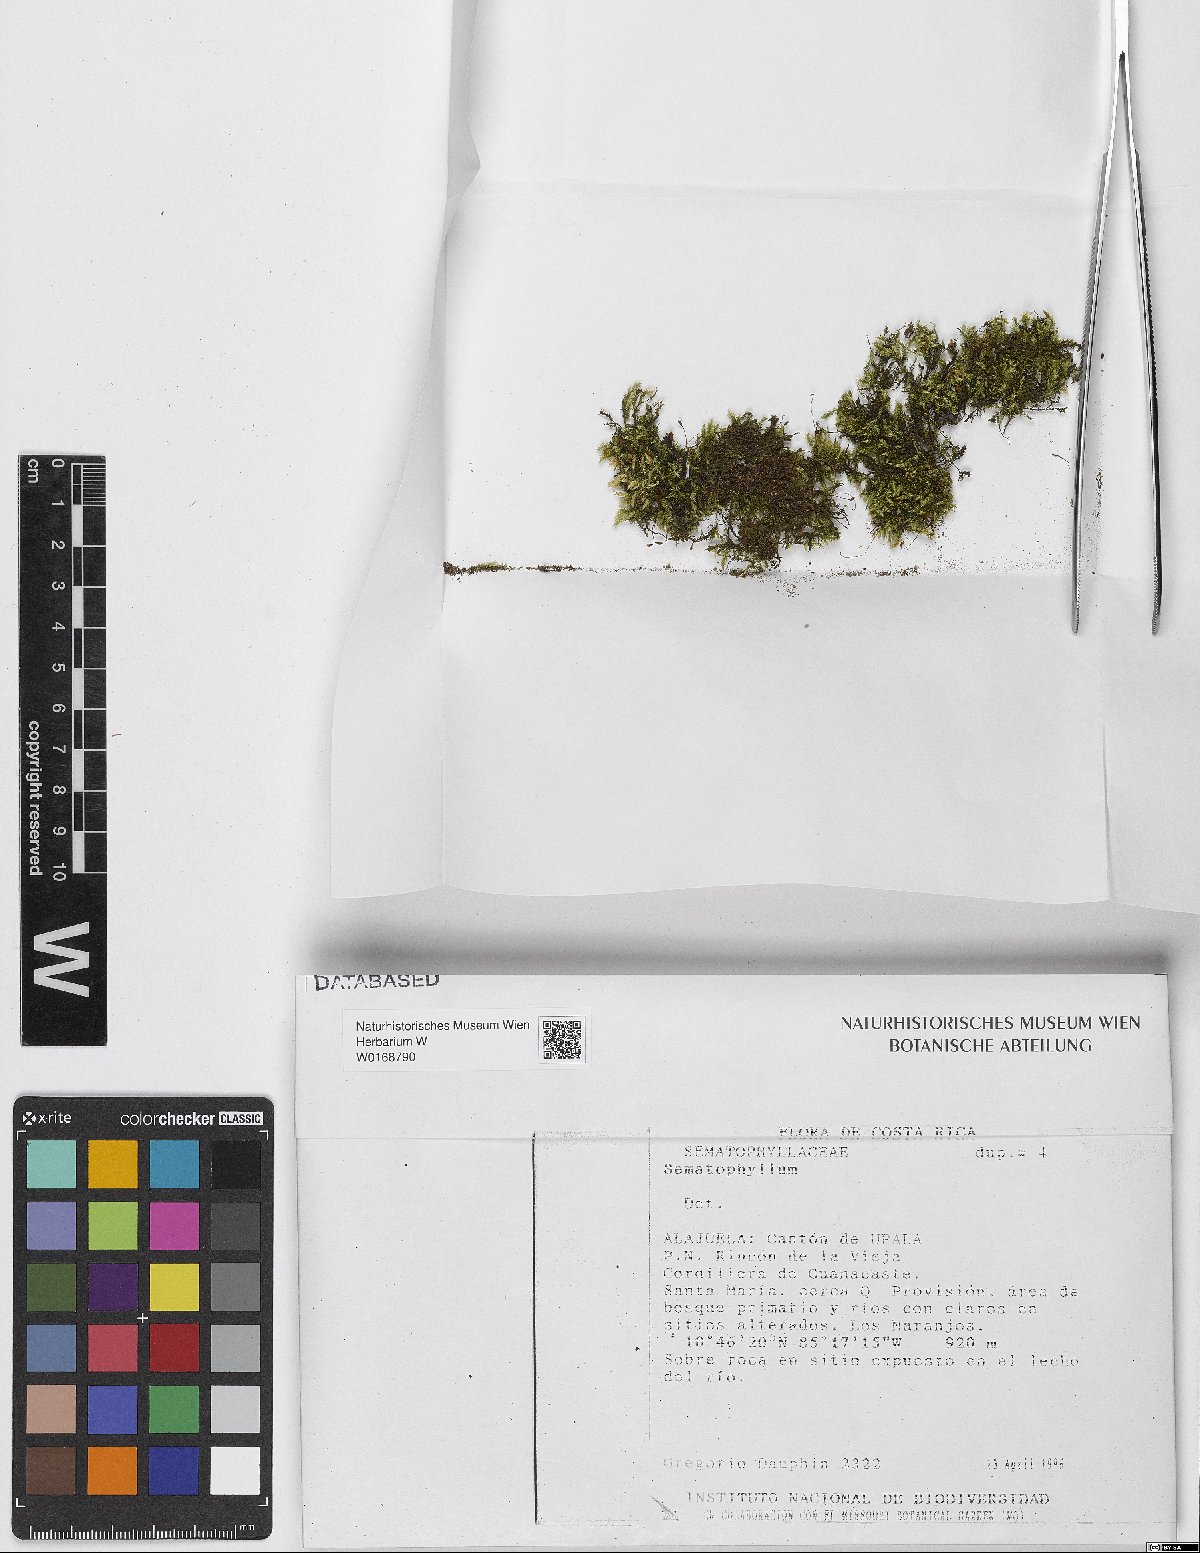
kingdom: Plantae
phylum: Bryophyta
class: Bryopsida
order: Hypnales
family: Sematophyllaceae
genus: Sematophyllum
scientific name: Sematophyllum
